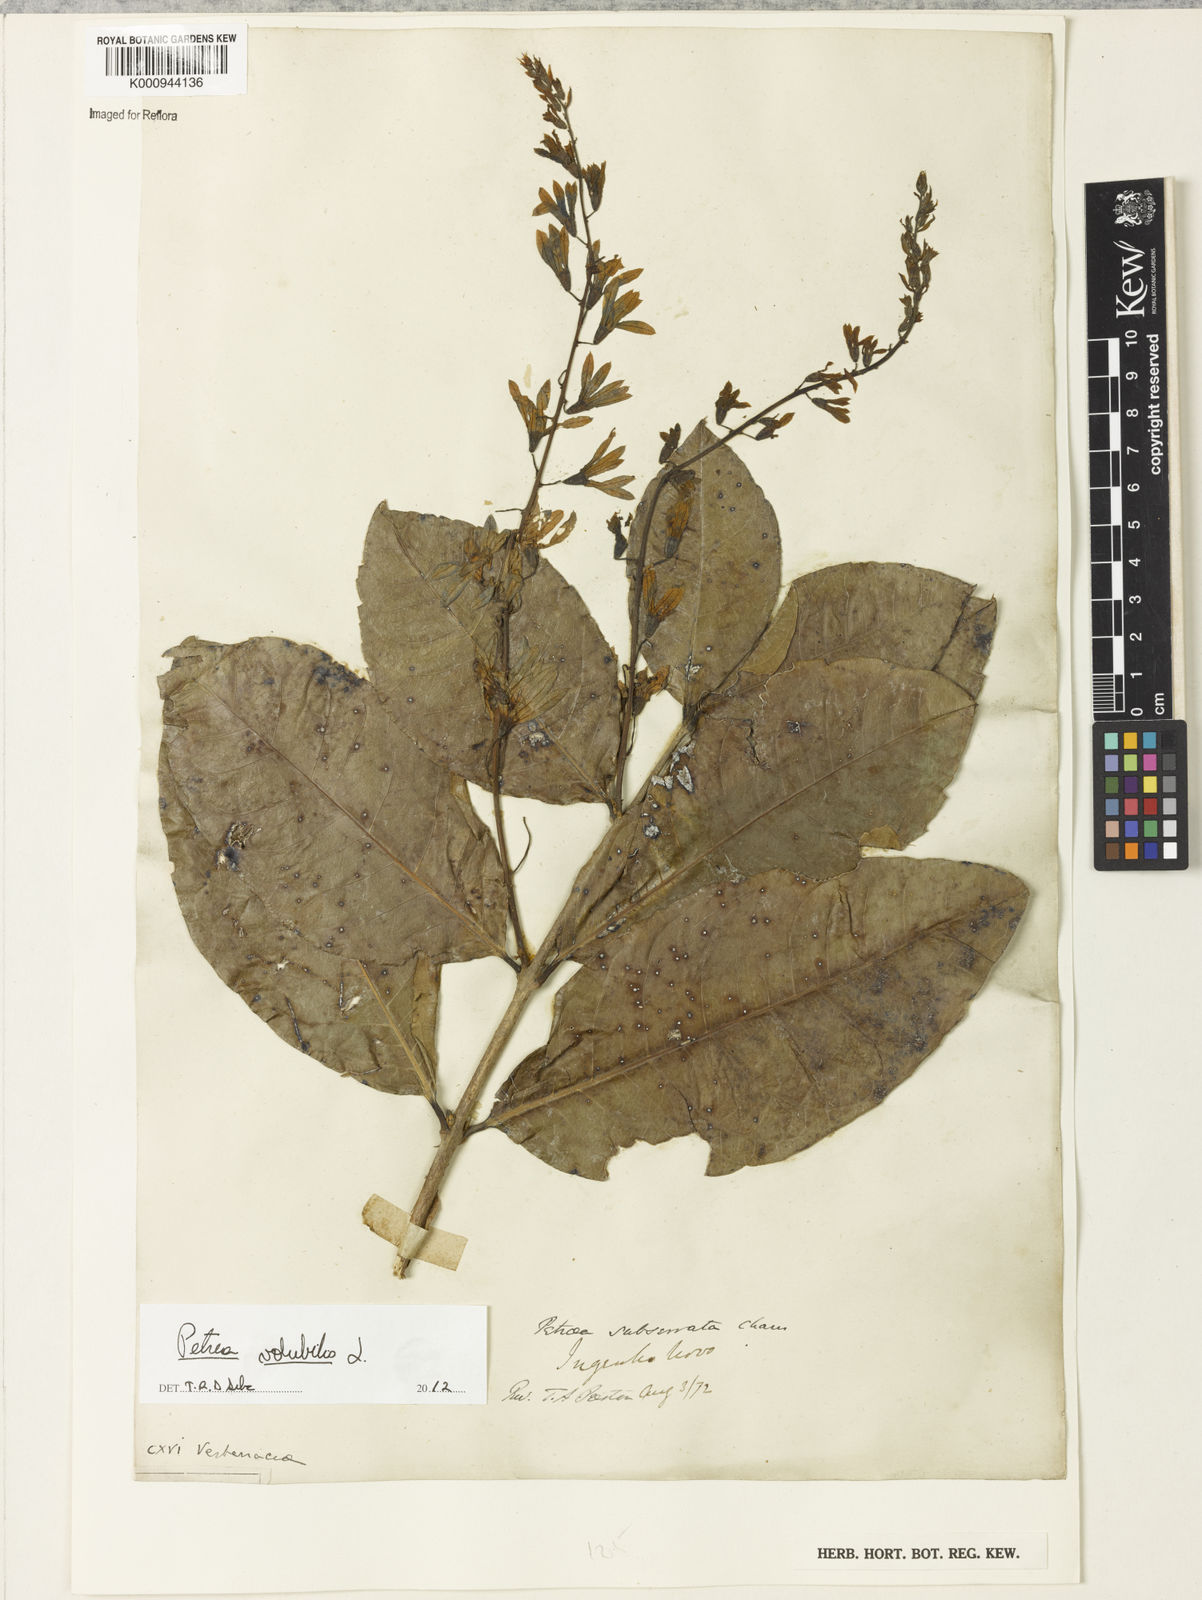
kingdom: Plantae
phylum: Tracheophyta
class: Magnoliopsida
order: Lamiales
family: Verbenaceae
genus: Petrea
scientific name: Petrea
